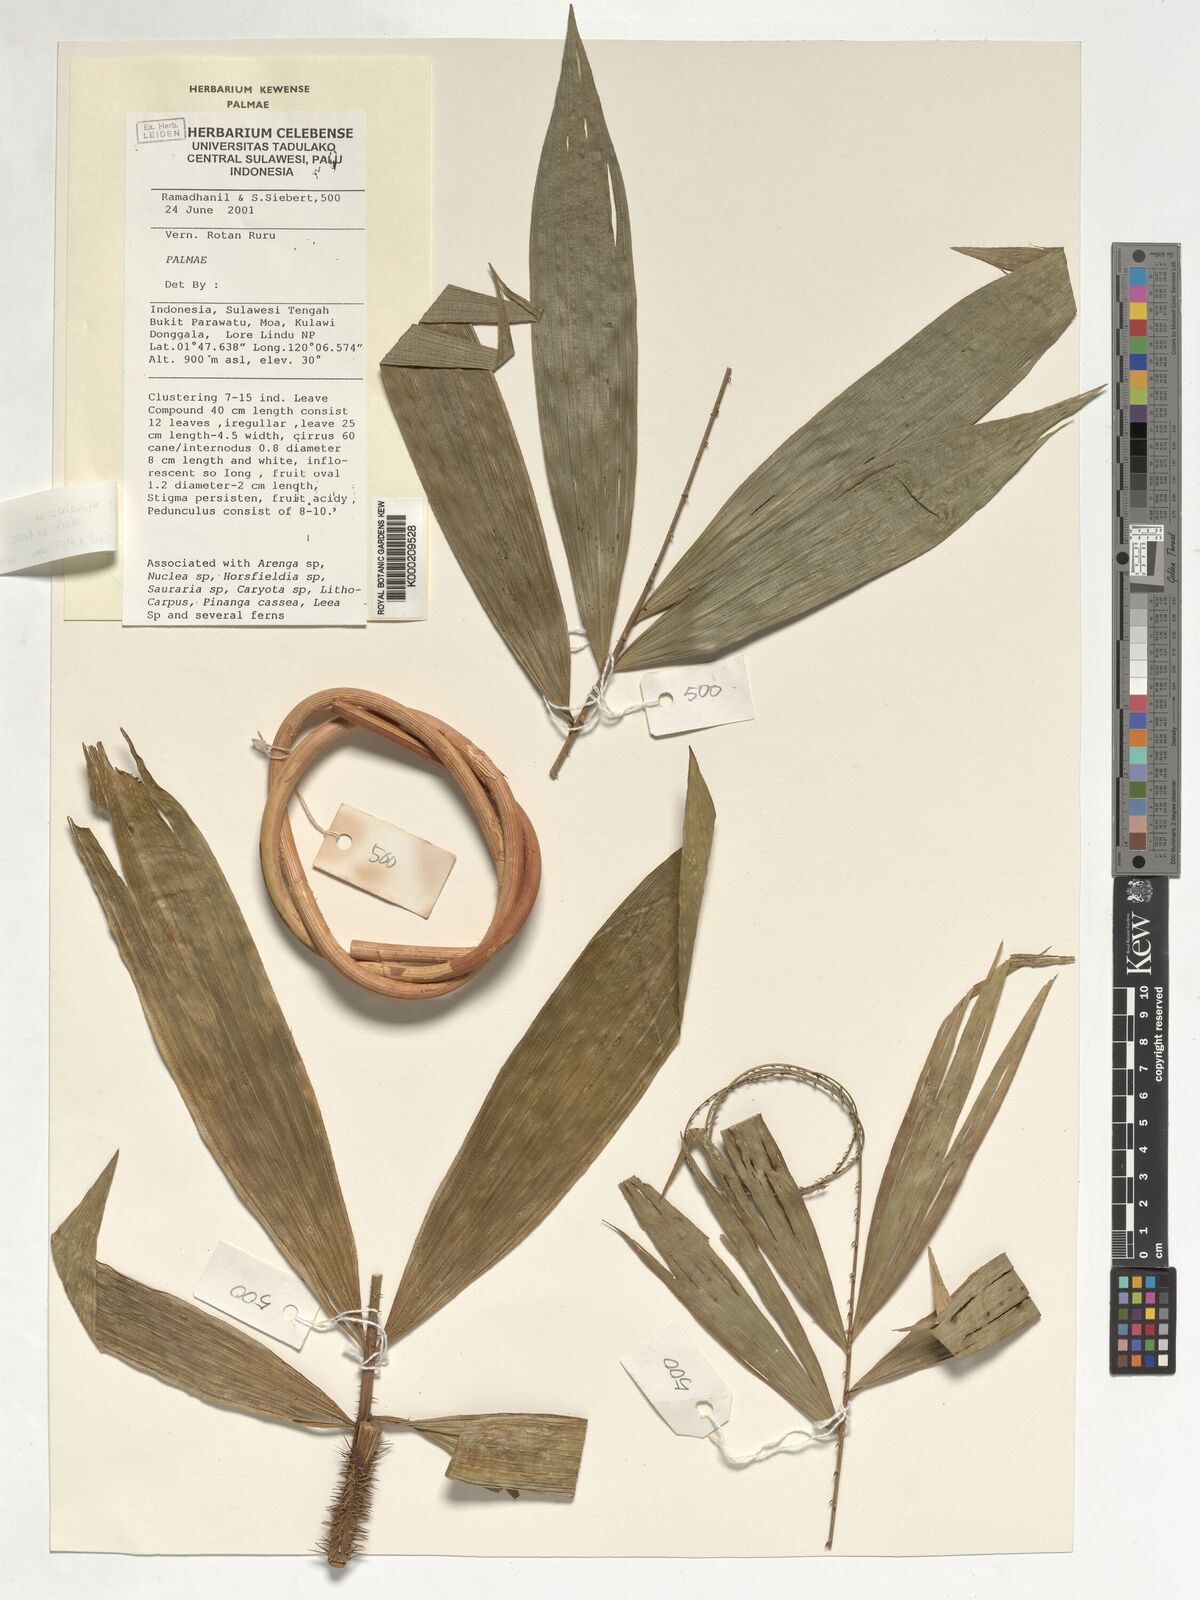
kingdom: Plantae
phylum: Tracheophyta
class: Liliopsida
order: Arecales
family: Arecaceae
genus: Calamus
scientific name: Calamus
